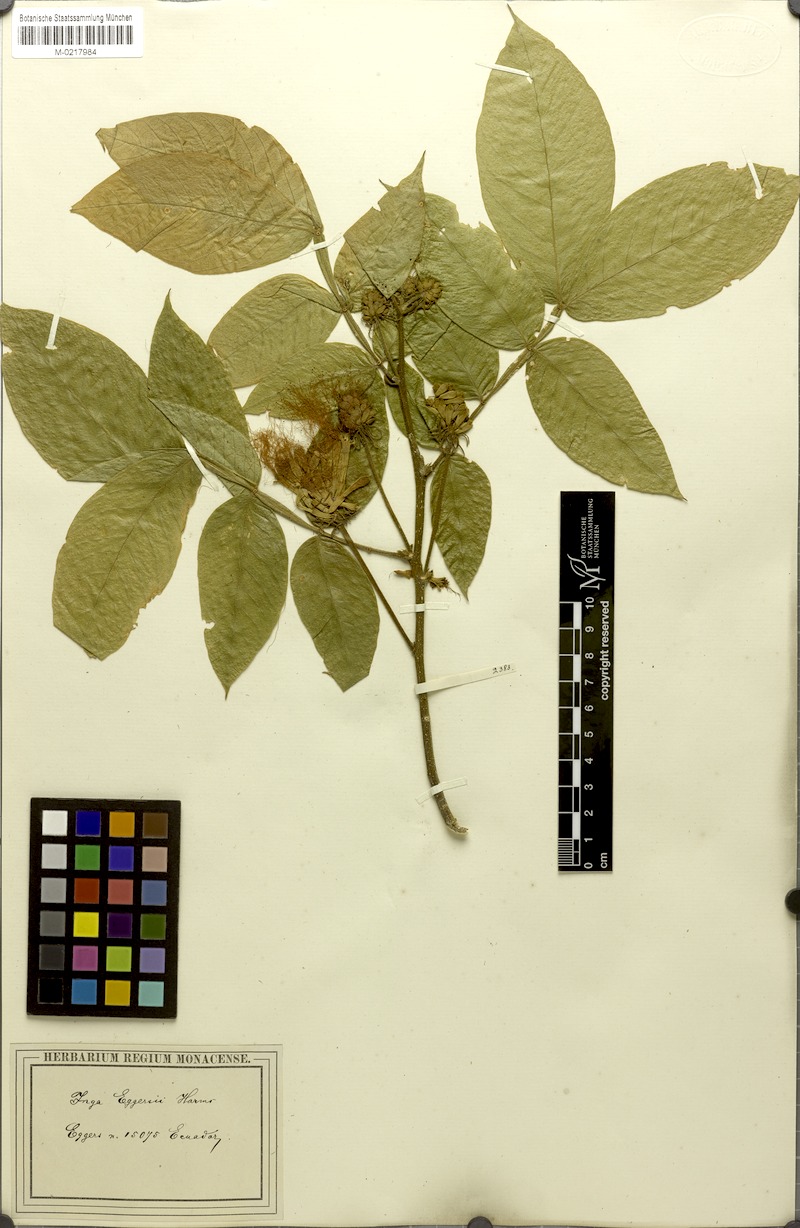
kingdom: Plantae
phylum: Tracheophyta
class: Magnoliopsida
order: Fabales
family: Fabaceae
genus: Inga
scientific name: Inga sapindoides
